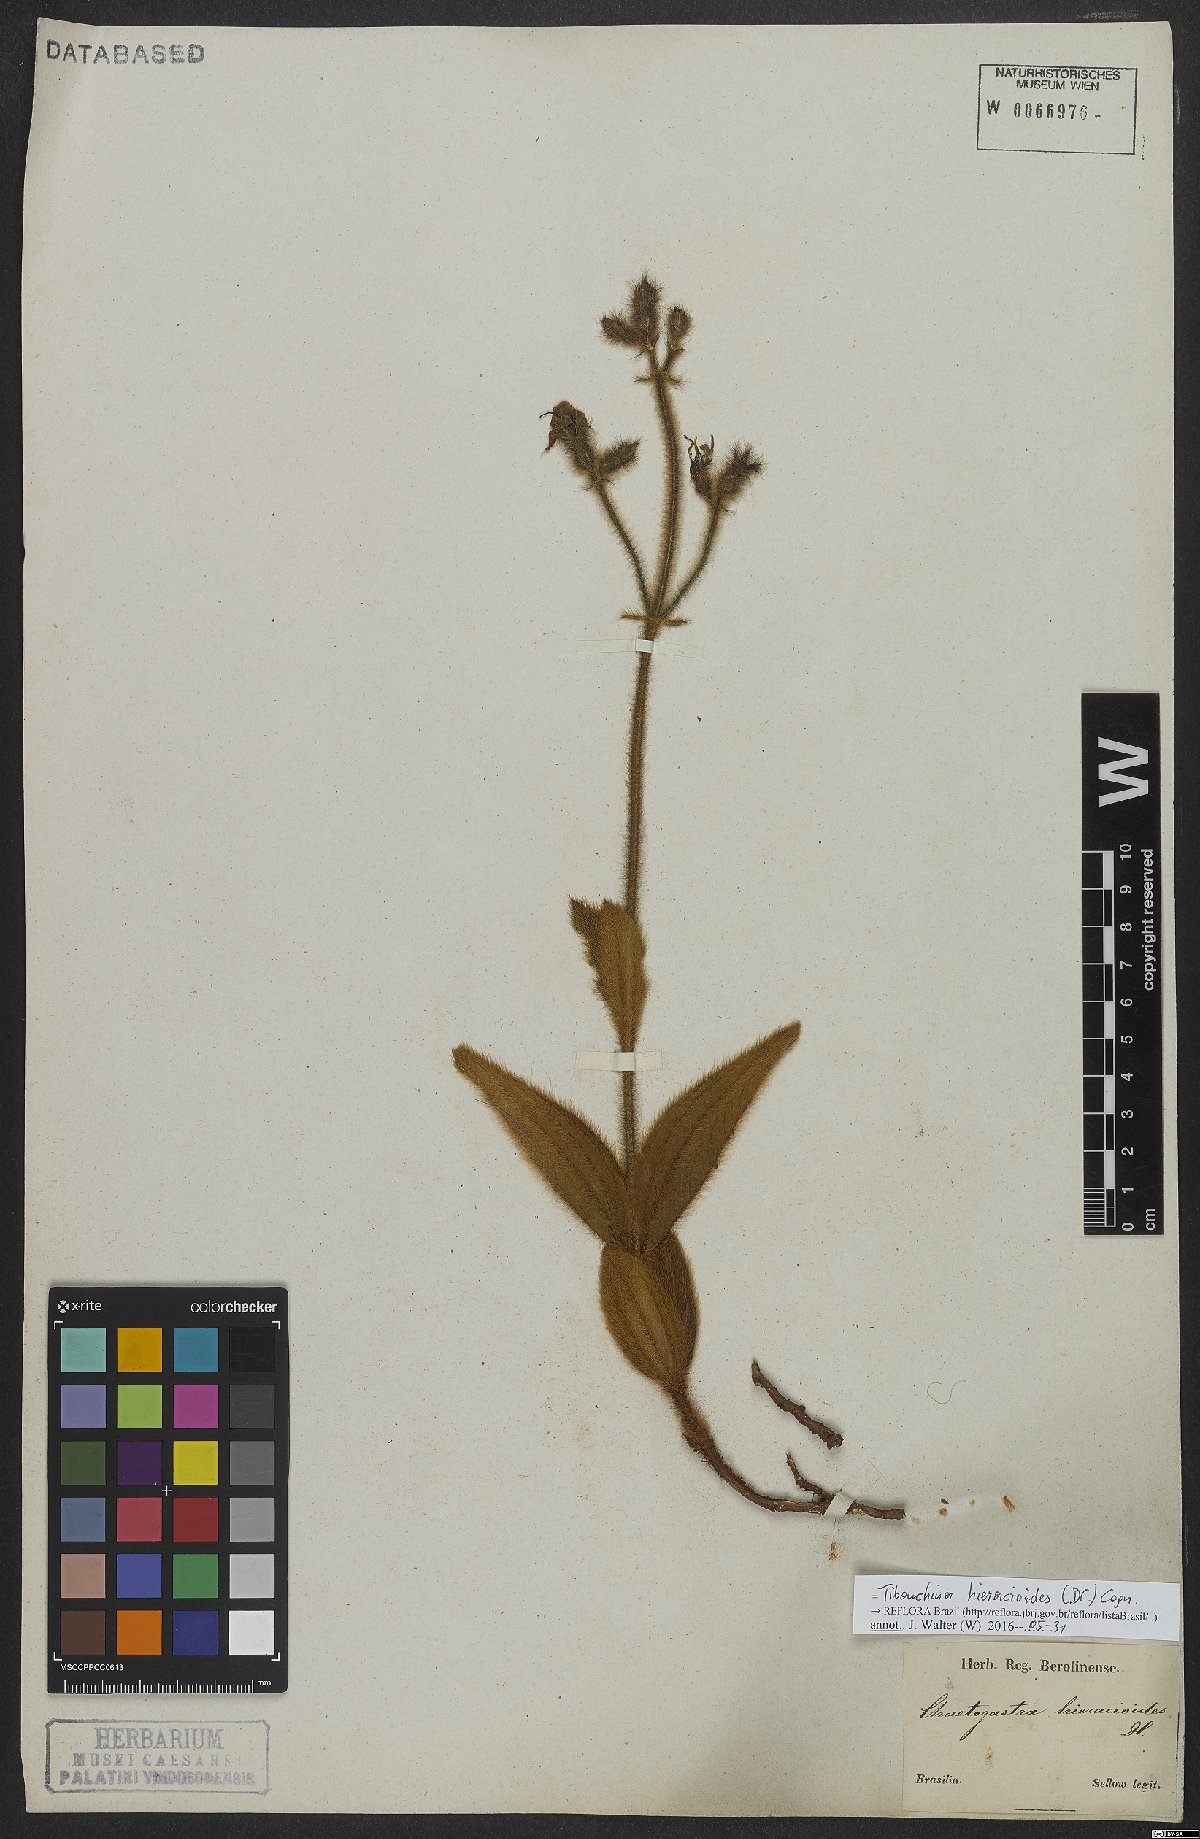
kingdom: Plantae
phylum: Tracheophyta
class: Magnoliopsida
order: Myrtales
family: Melastomataceae
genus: Chaetogastra
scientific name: Chaetogastra hieracioides
